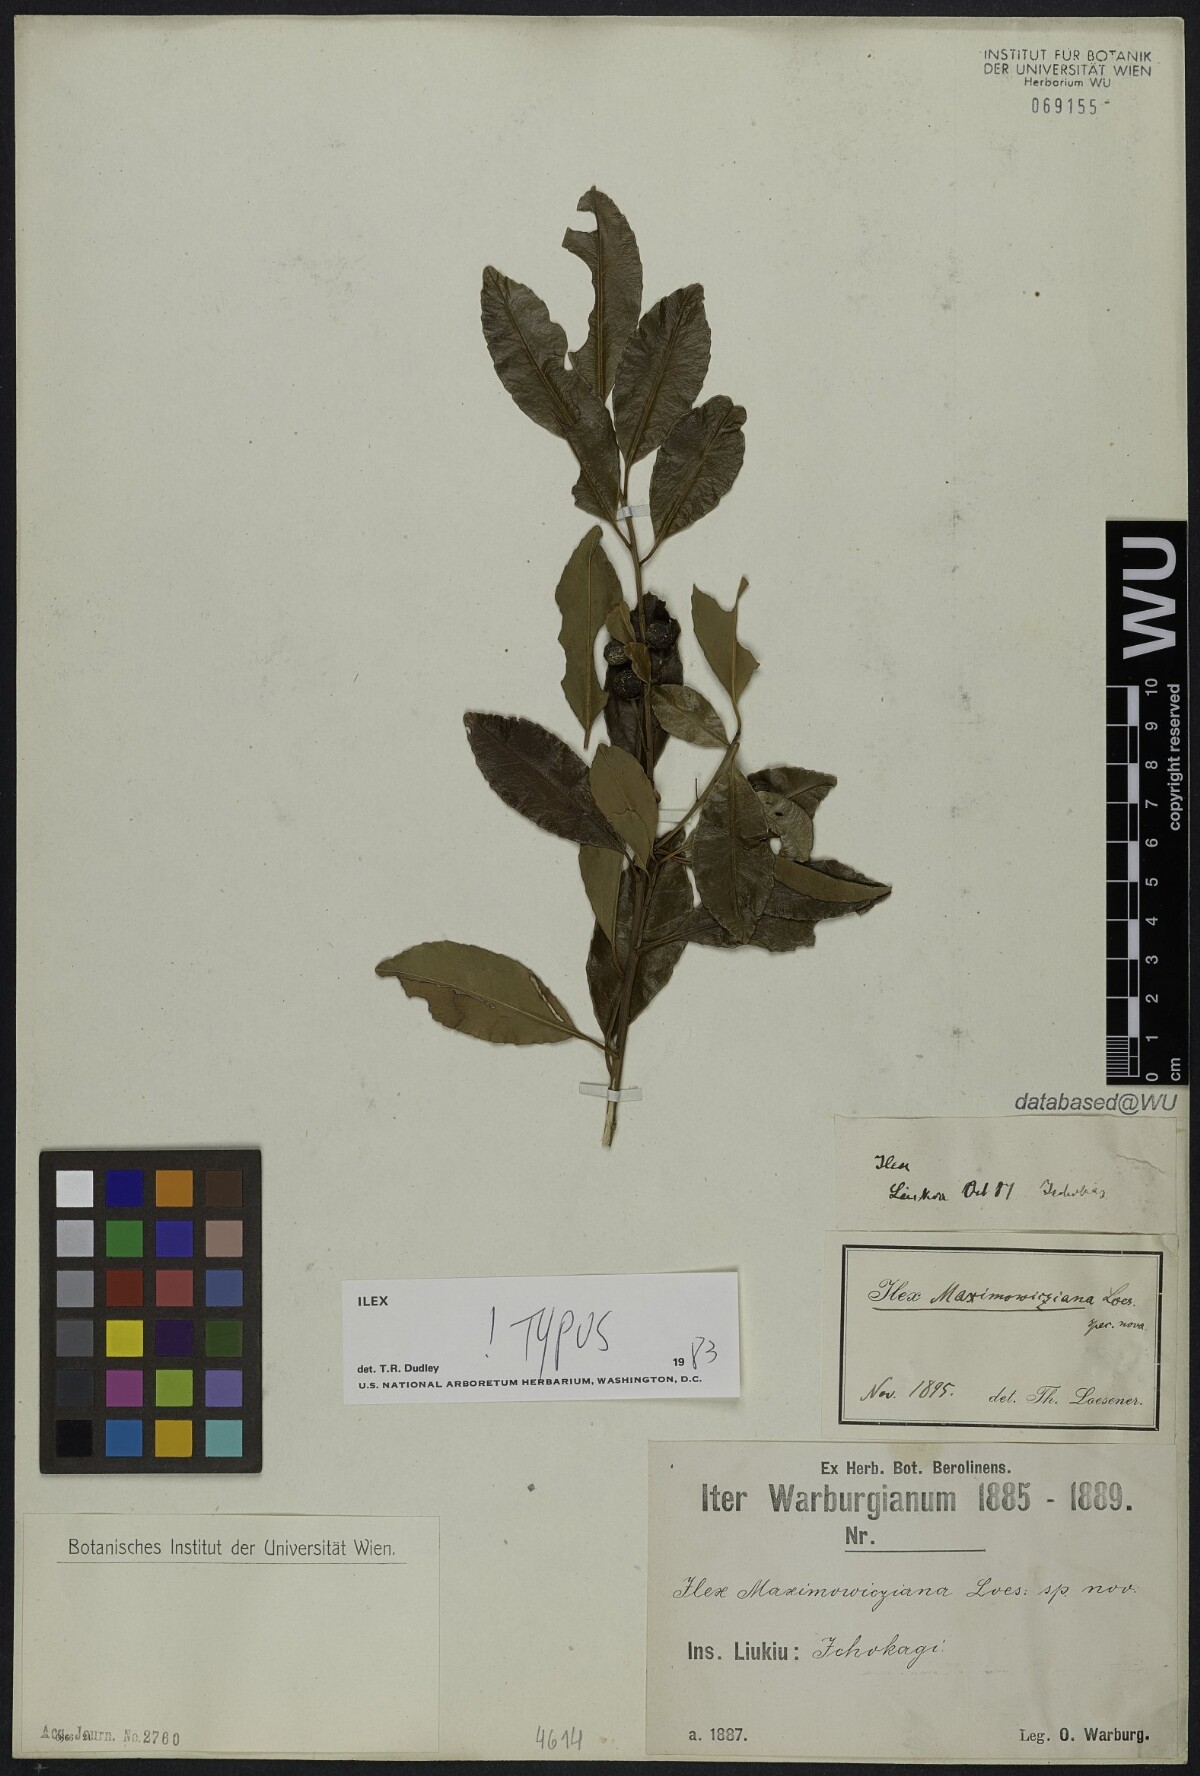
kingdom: Plantae
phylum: Tracheophyta
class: Magnoliopsida
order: Aquifoliales
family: Aquifoliaceae
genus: Ilex
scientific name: Ilex maximowicziana
